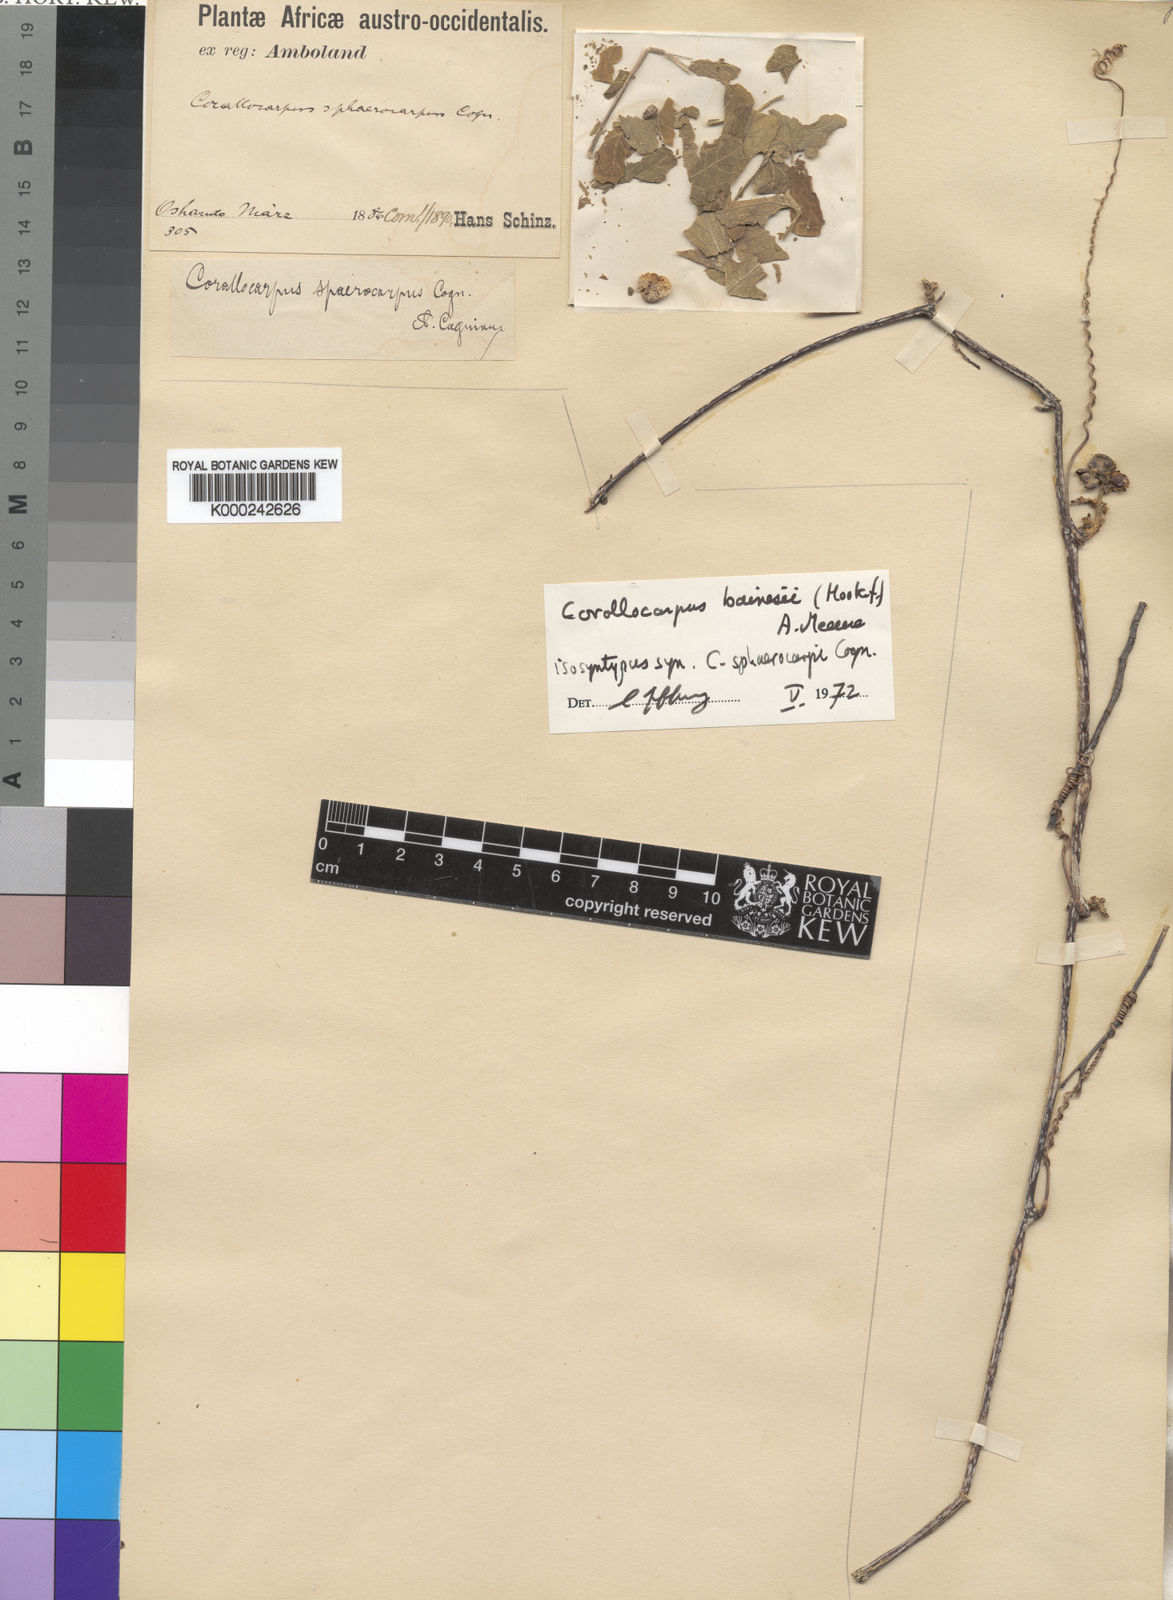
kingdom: Plantae
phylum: Tracheophyta
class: Magnoliopsida
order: Cucurbitales
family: Cucurbitaceae
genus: Corallocarpus
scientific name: Corallocarpus bainesii
